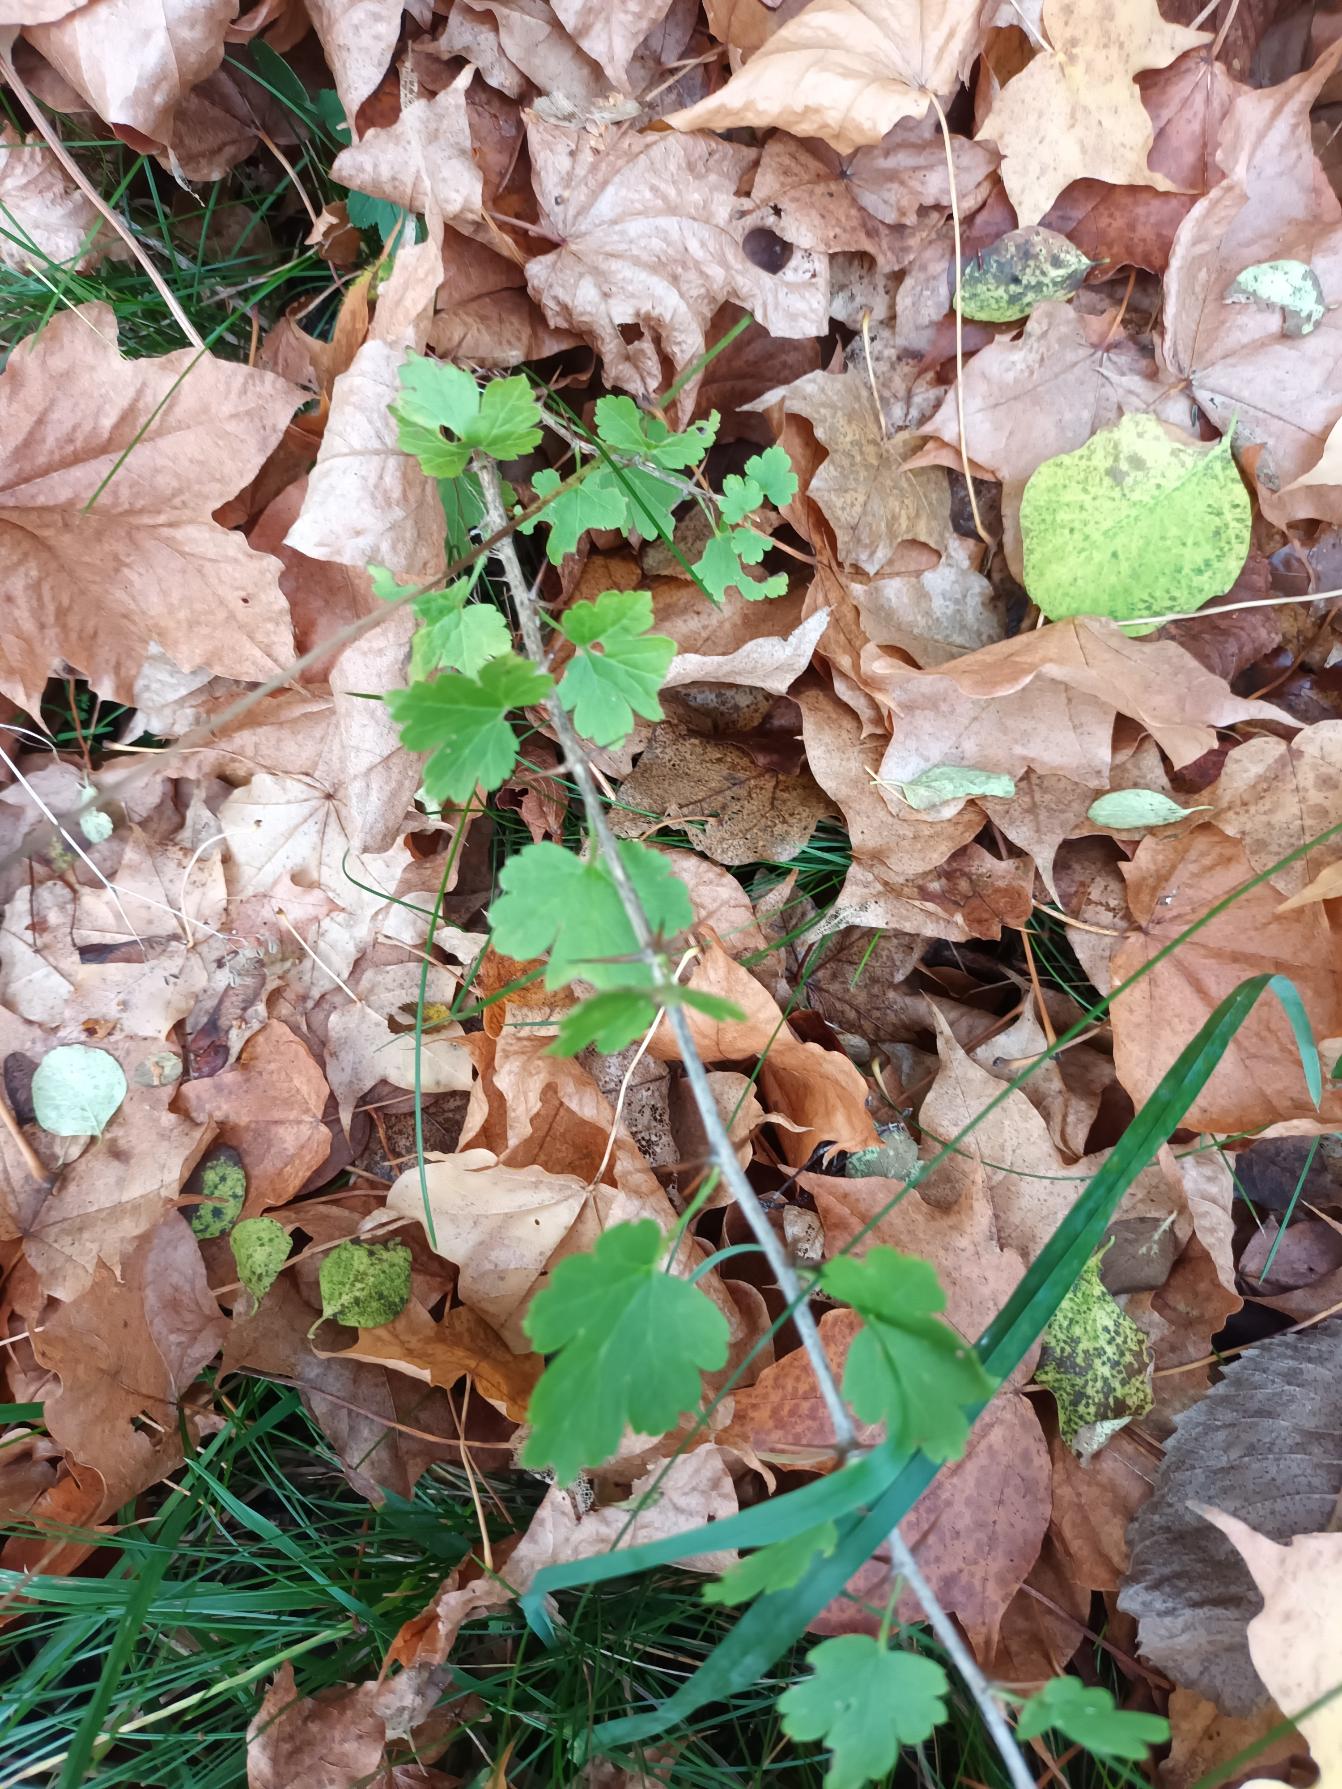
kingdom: Plantae
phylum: Tracheophyta
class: Magnoliopsida
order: Saxifragales
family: Grossulariaceae
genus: Ribes
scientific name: Ribes uva-crispa
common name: Stikkelsbær
